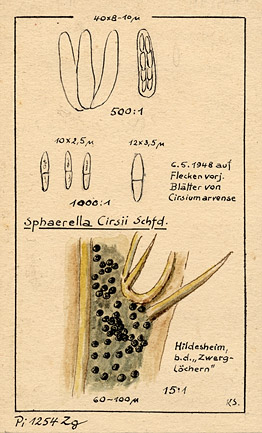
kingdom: Plantae
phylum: Tracheophyta
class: Magnoliopsida
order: Asterales
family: Asteraceae
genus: Cirsium
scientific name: Cirsium arvense
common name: Creeping thistle
